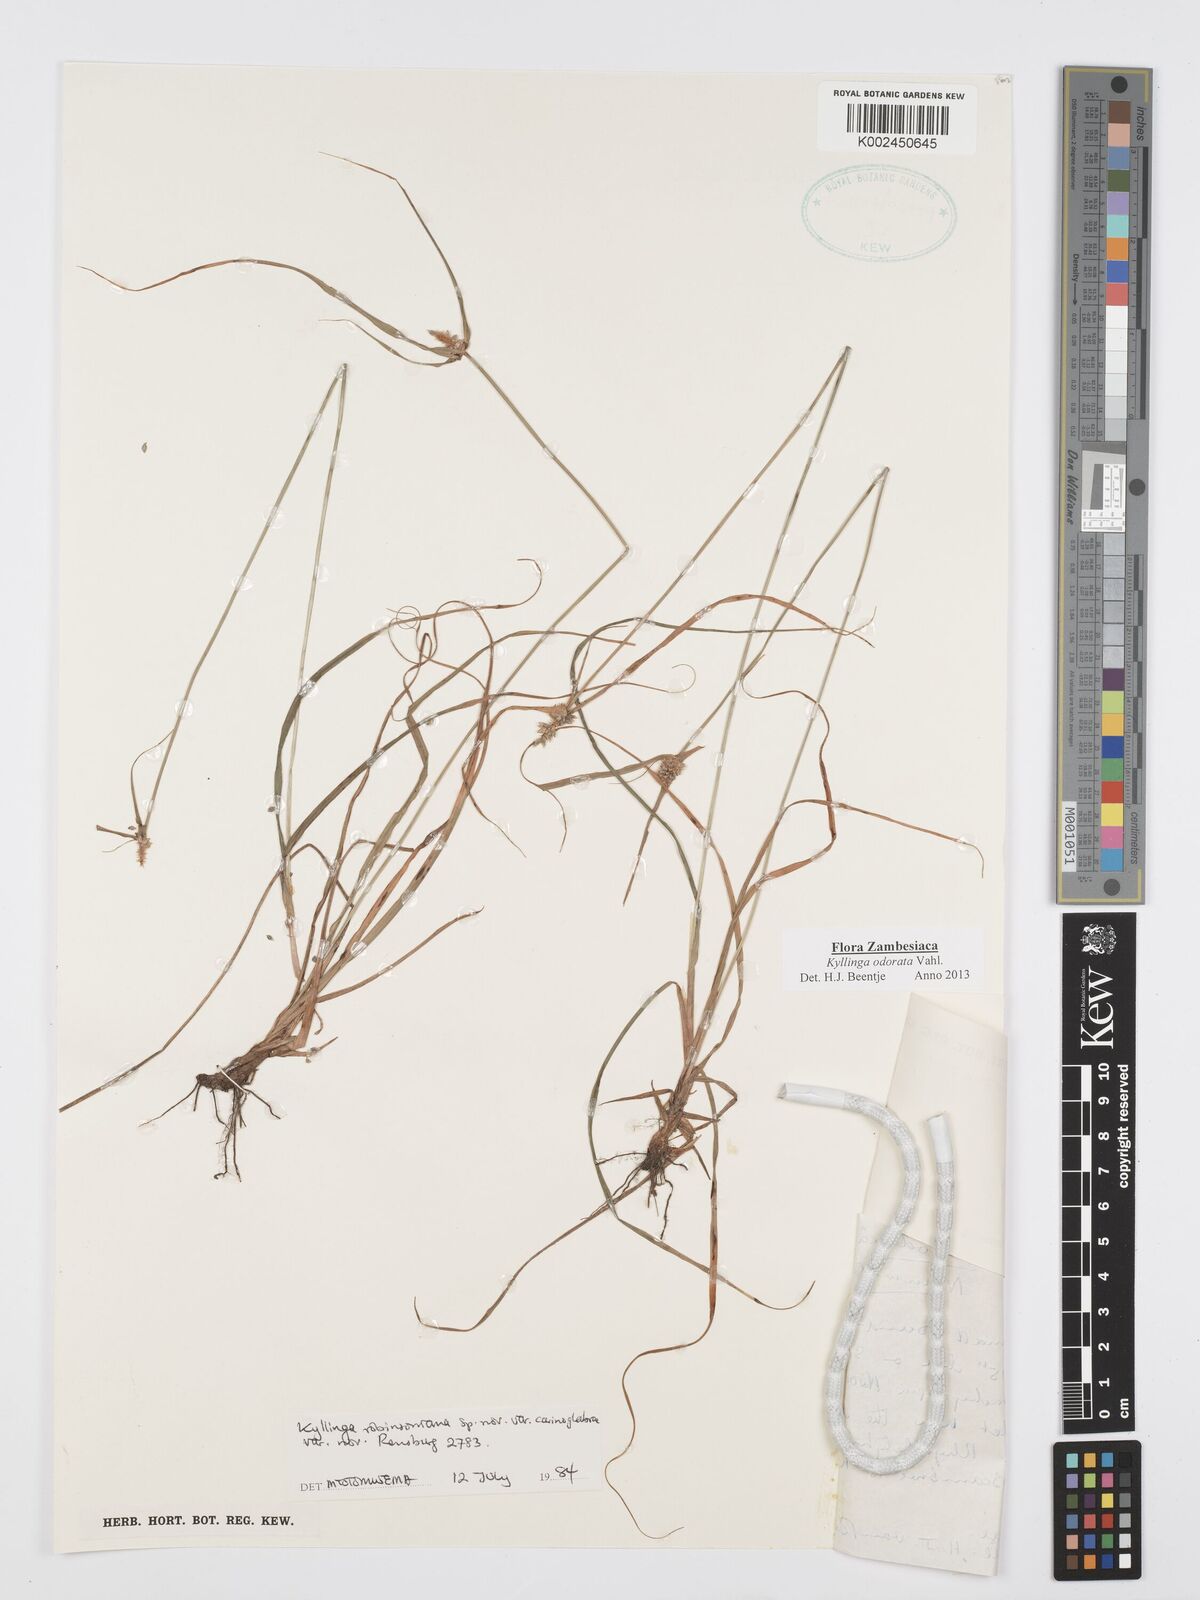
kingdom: Plantae
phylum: Tracheophyta
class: Liliopsida
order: Poales
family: Cyperaceae
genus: Cyperus
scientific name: Cyperus
